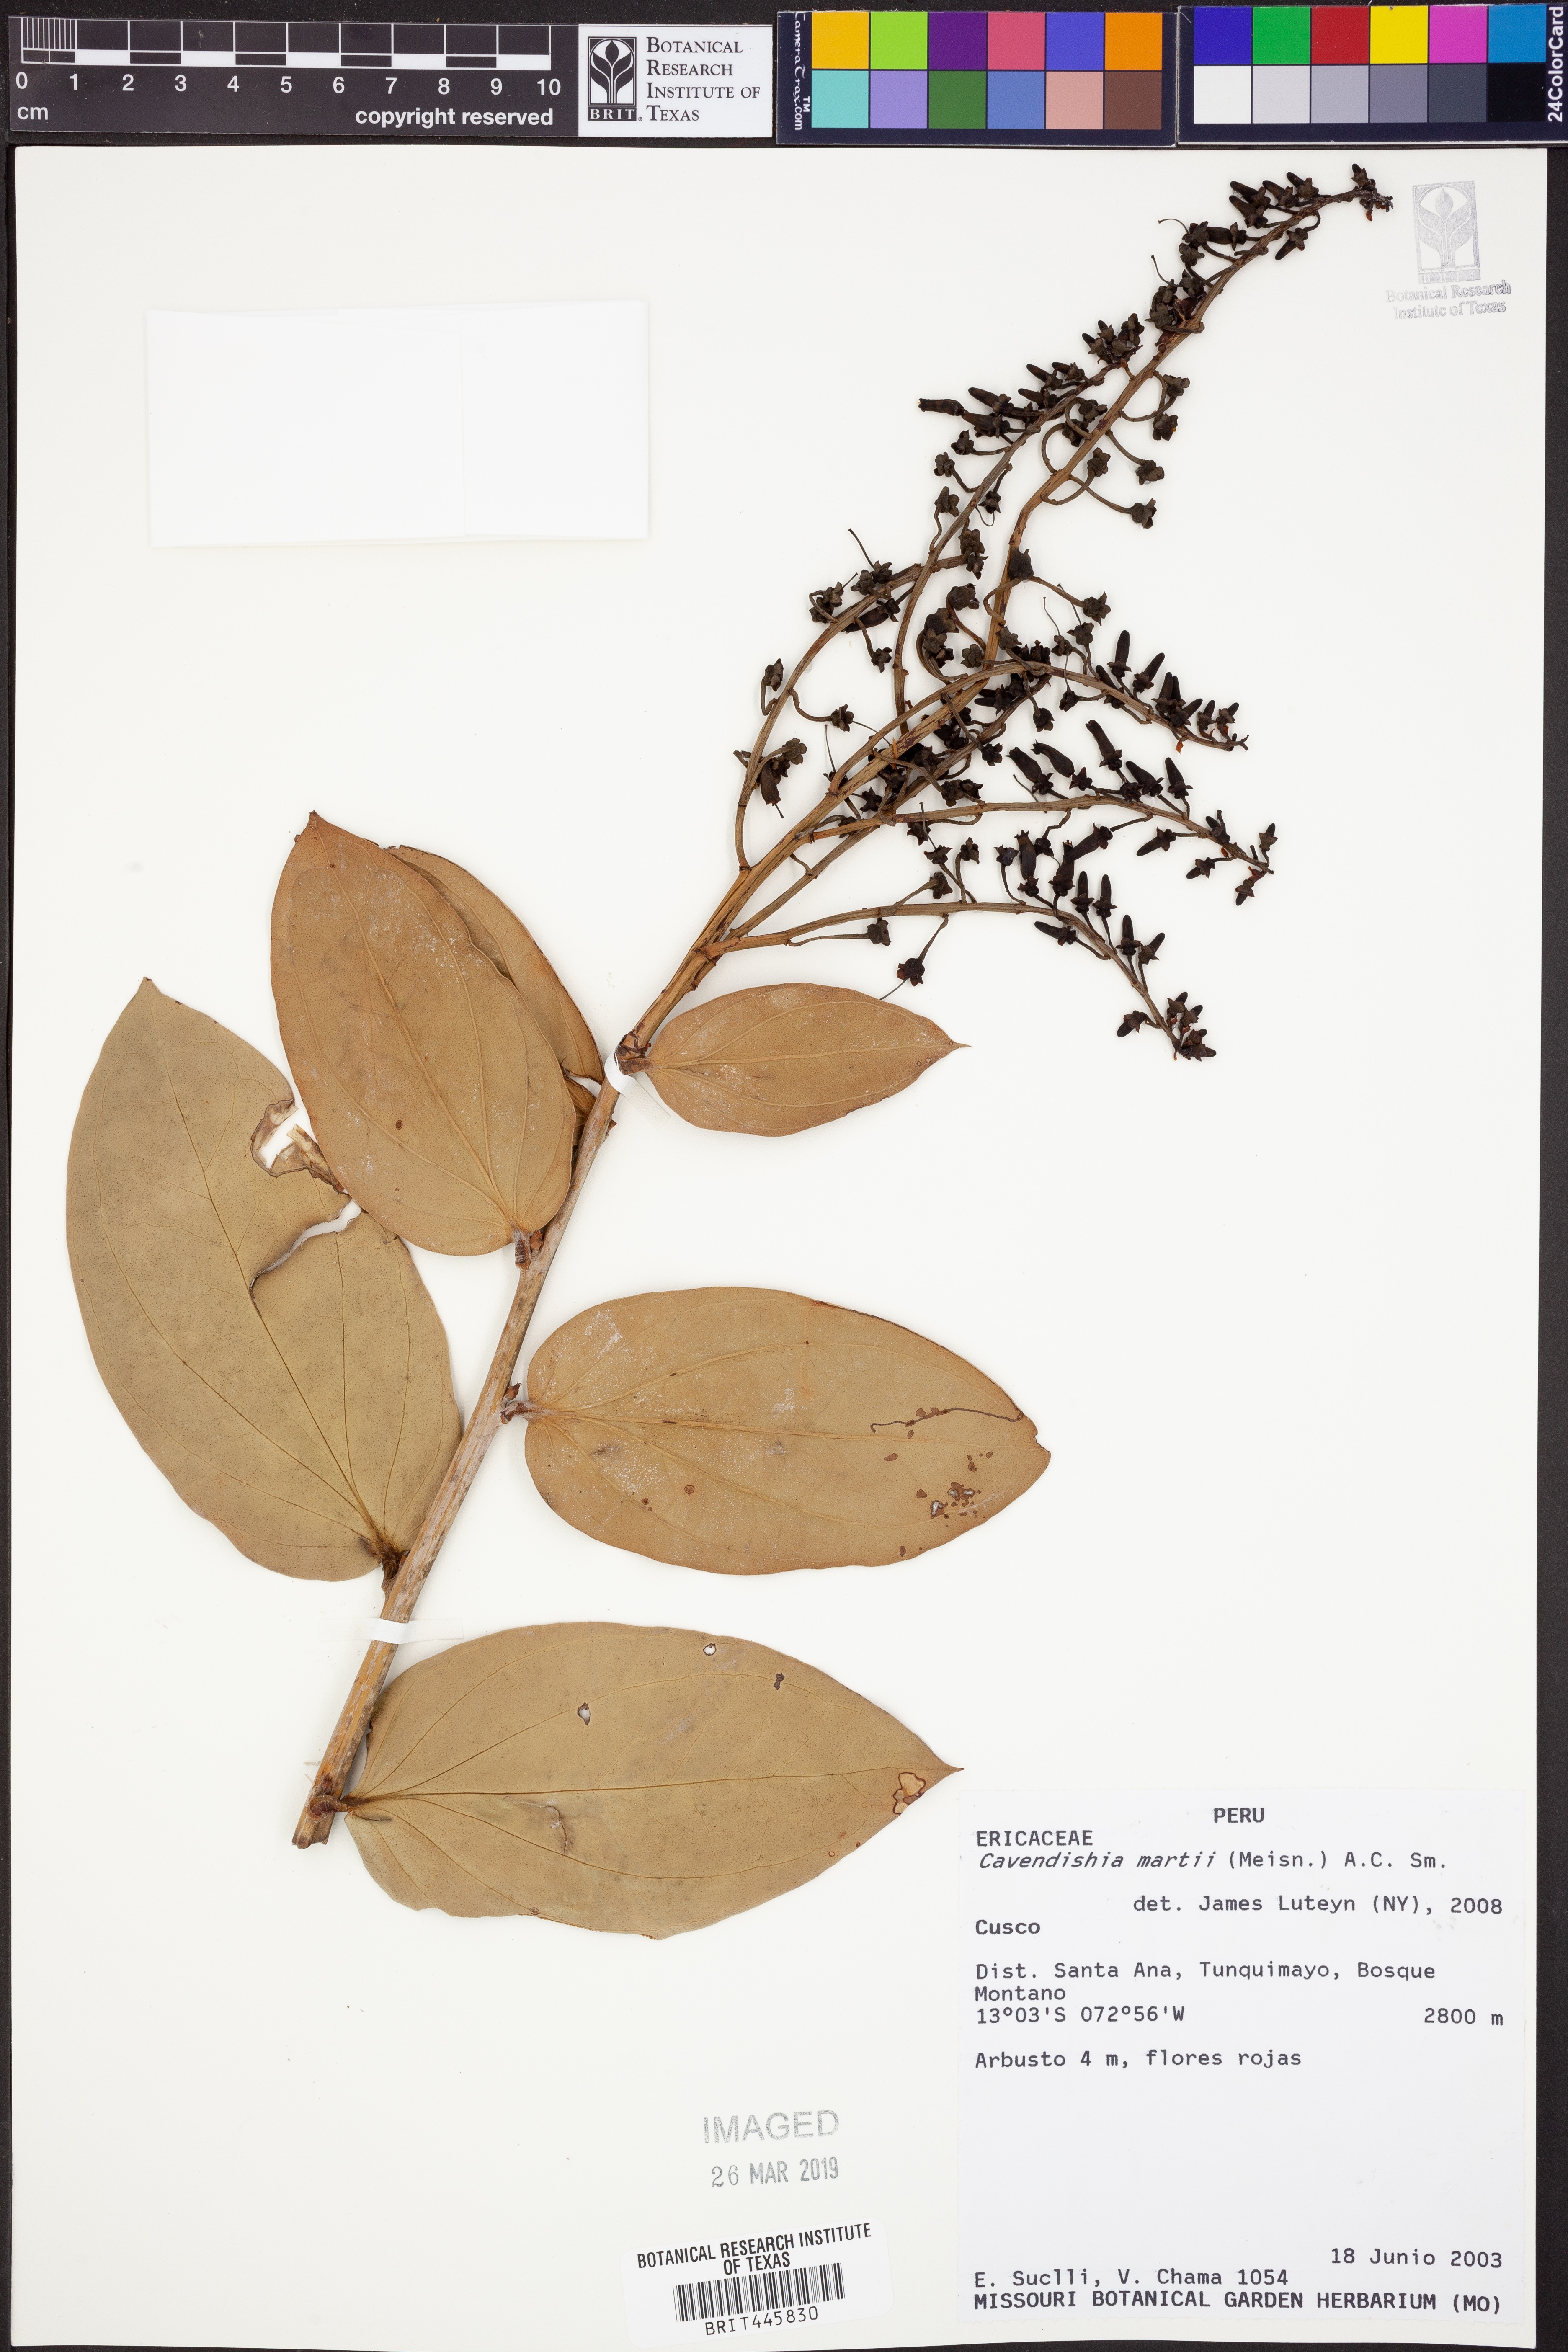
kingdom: Plantae
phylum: Tracheophyta
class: Magnoliopsida
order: Ericales
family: Ericaceae
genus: Cavendishia
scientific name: Cavendishia martii
